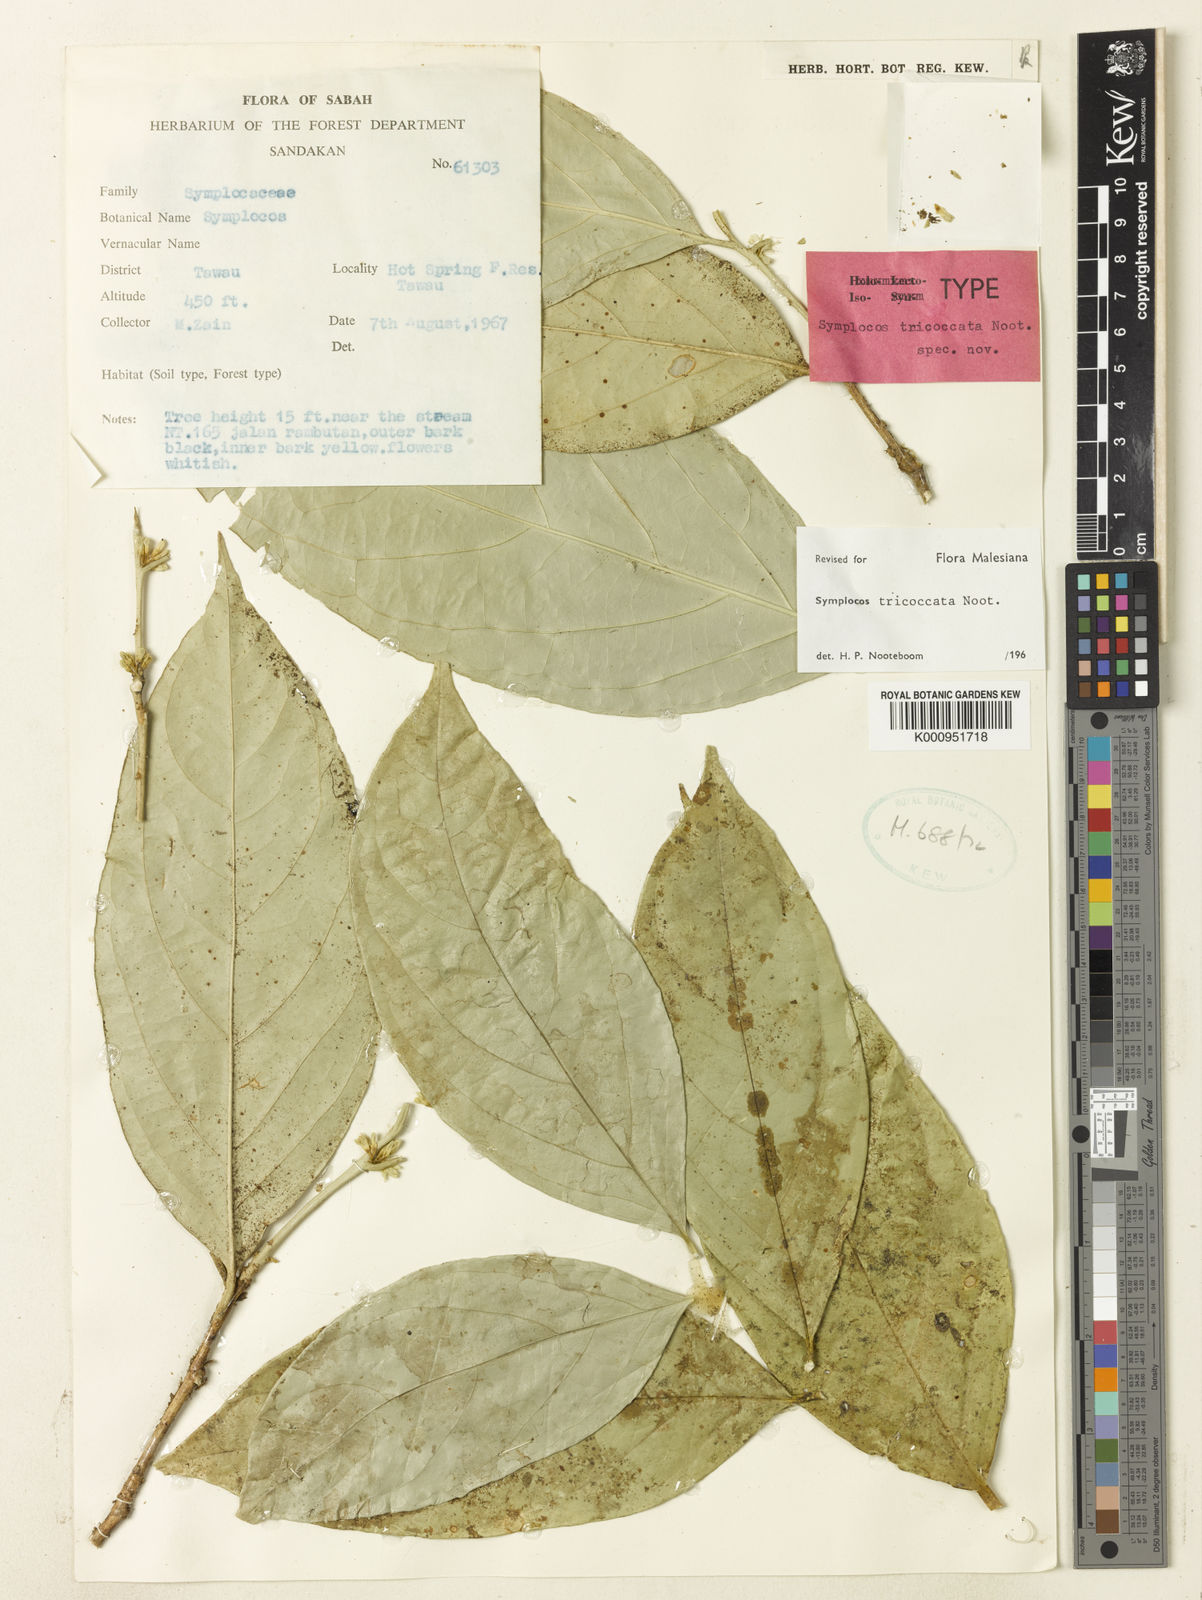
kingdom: Plantae
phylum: Tracheophyta
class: Magnoliopsida
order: Ericales
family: Symplocaceae
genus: Symplocos
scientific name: Symplocos tricoccata
